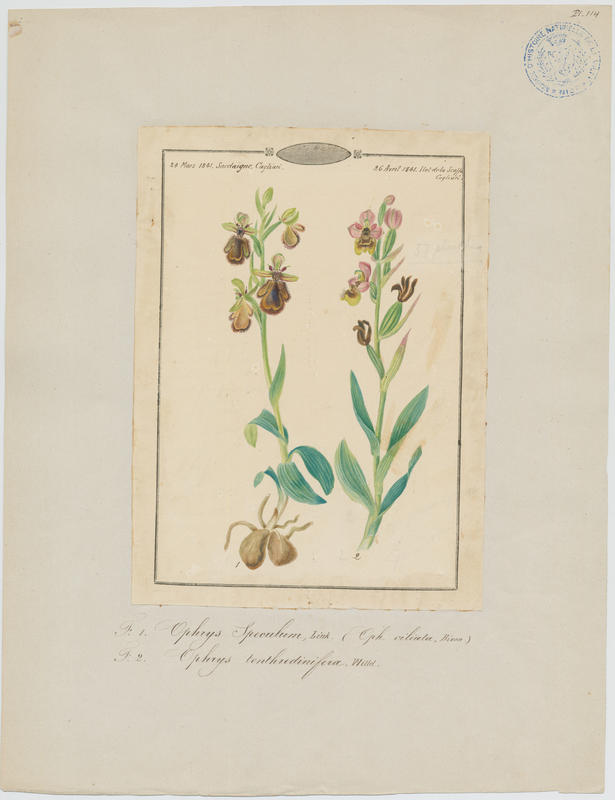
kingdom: Plantae
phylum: Tracheophyta
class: Liliopsida
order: Asparagales
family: Orchidaceae
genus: Ophrys
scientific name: Ophrys tenthredinifera
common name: Sawfly orchid
